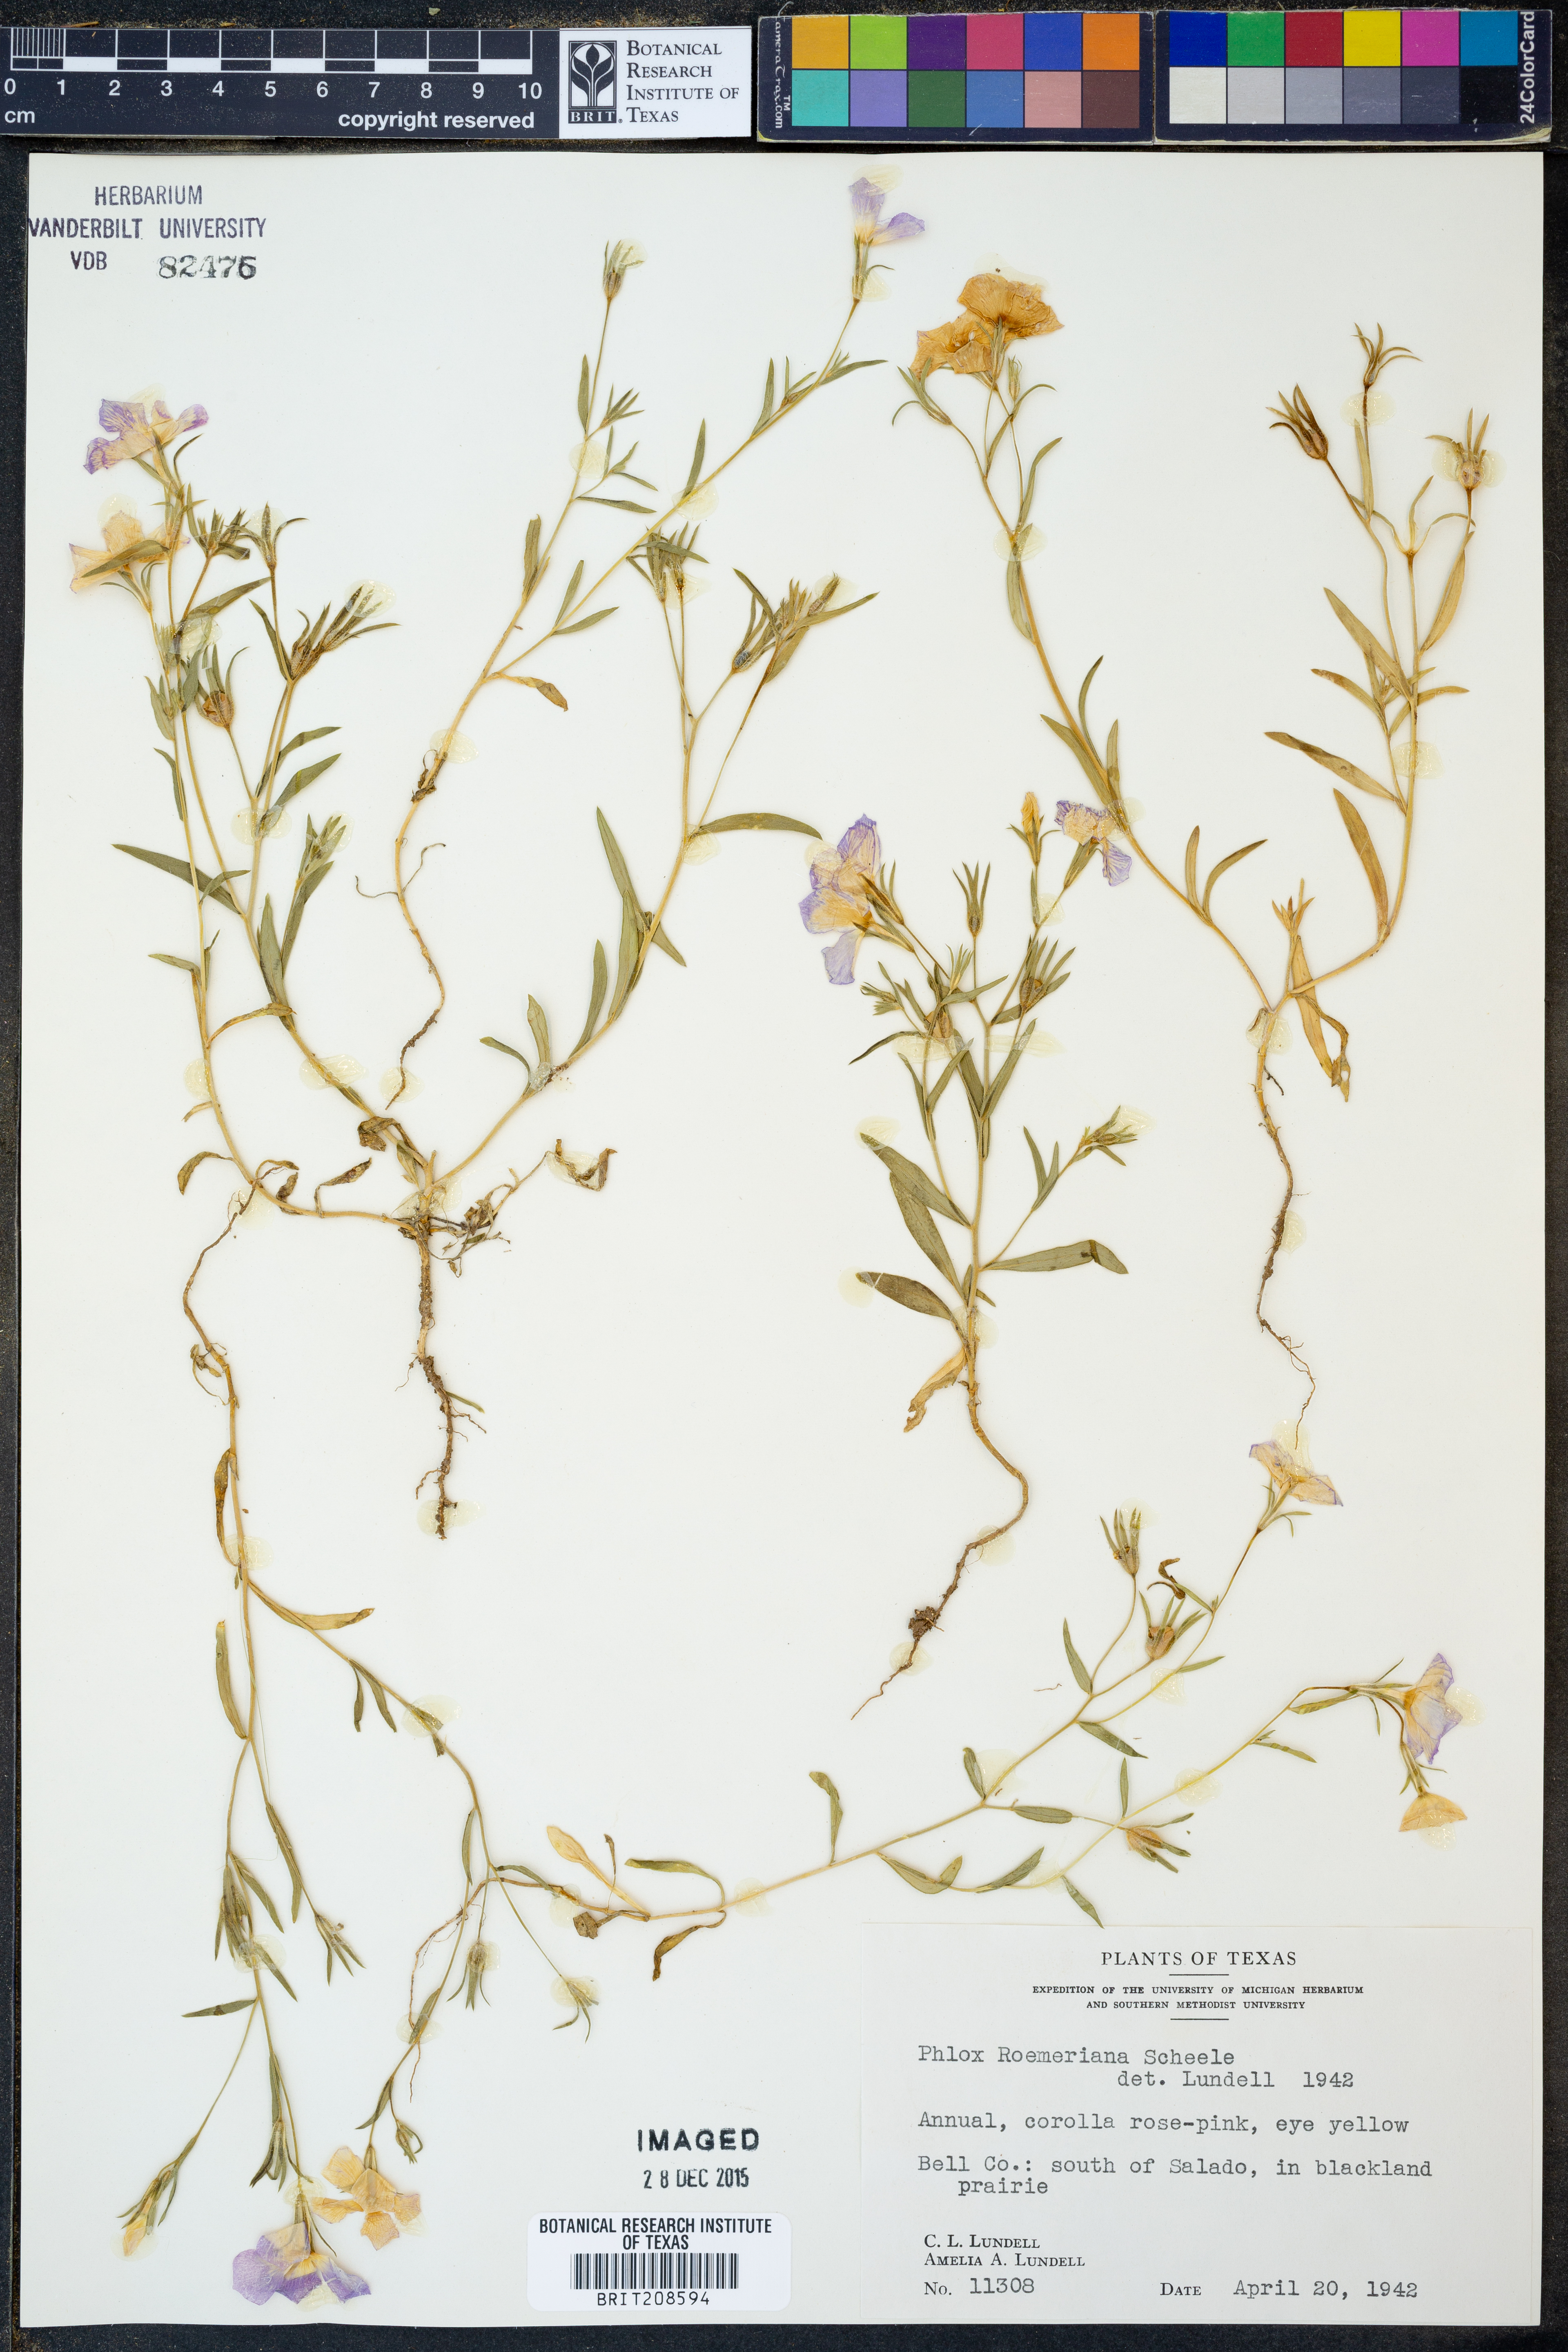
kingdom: Plantae
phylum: Tracheophyta
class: Magnoliopsida
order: Ericales
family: Polemoniaceae
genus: Phlox
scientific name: Phlox roemeriana
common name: Roemer's phlox
